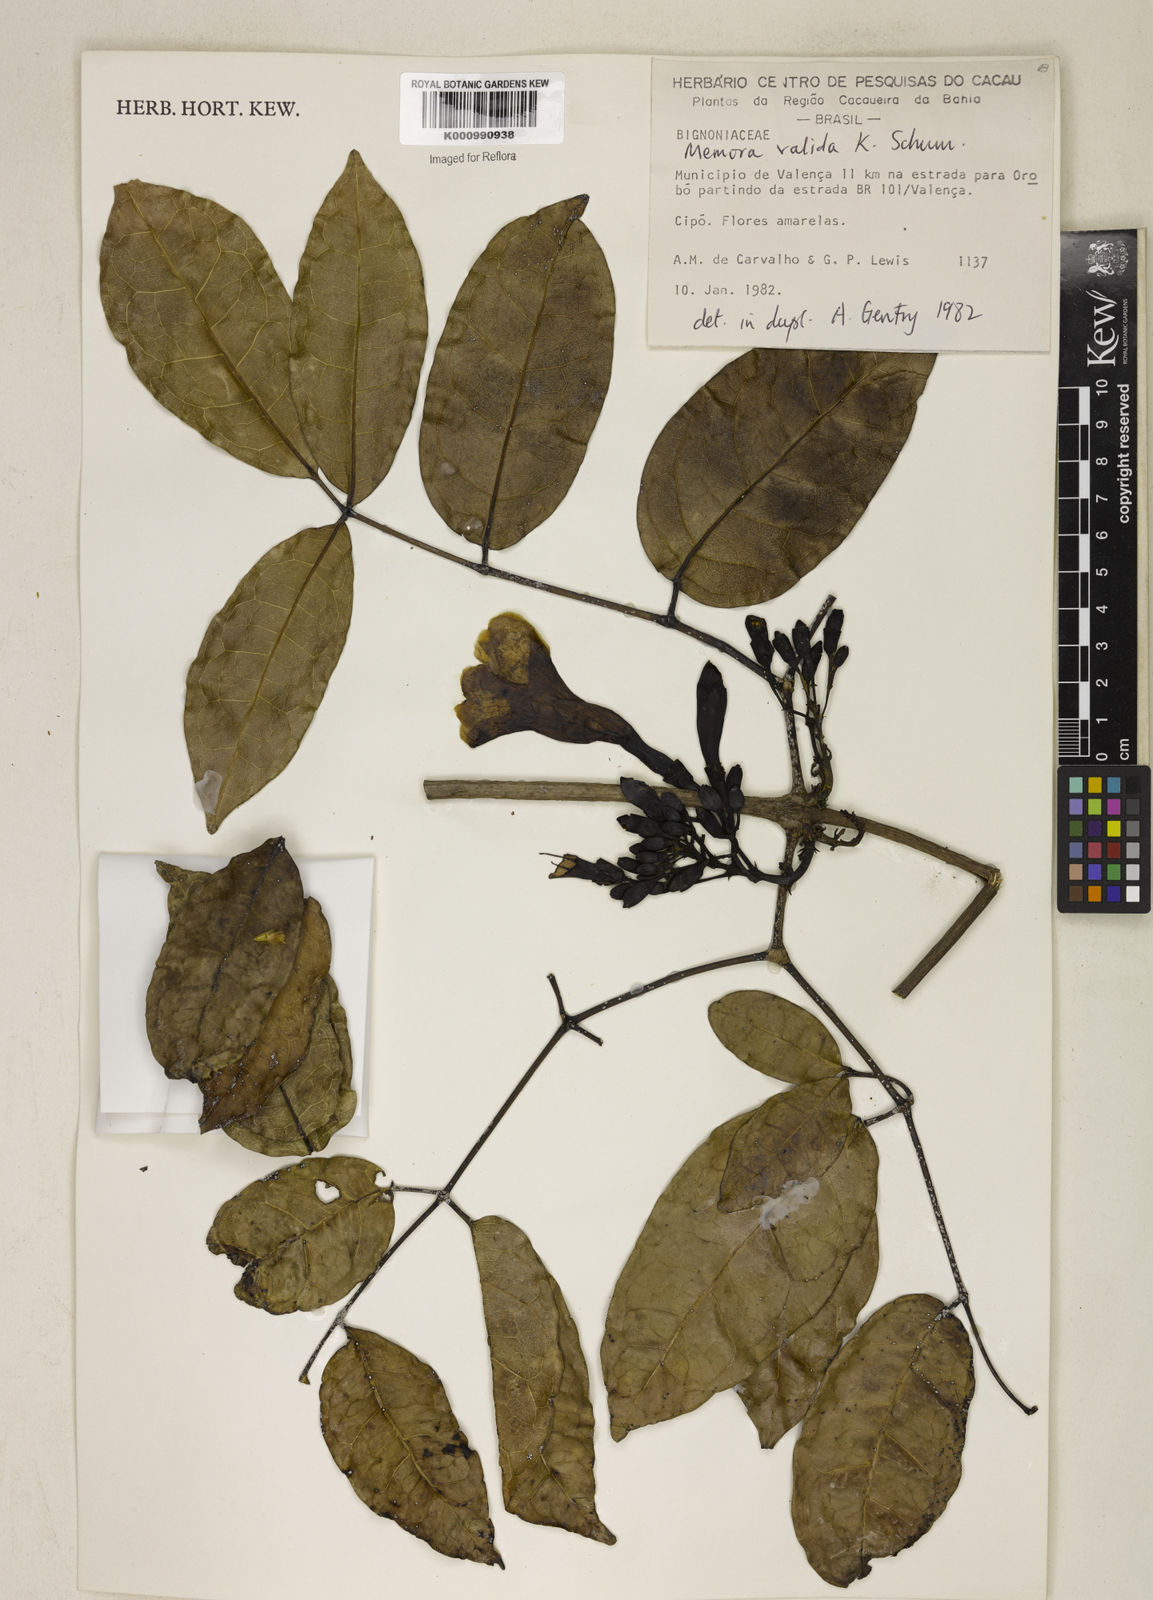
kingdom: Plantae
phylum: Tracheophyta
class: Magnoliopsida
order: Lamiales
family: Bignoniaceae
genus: Adenocalymma
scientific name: Adenocalymma validum
